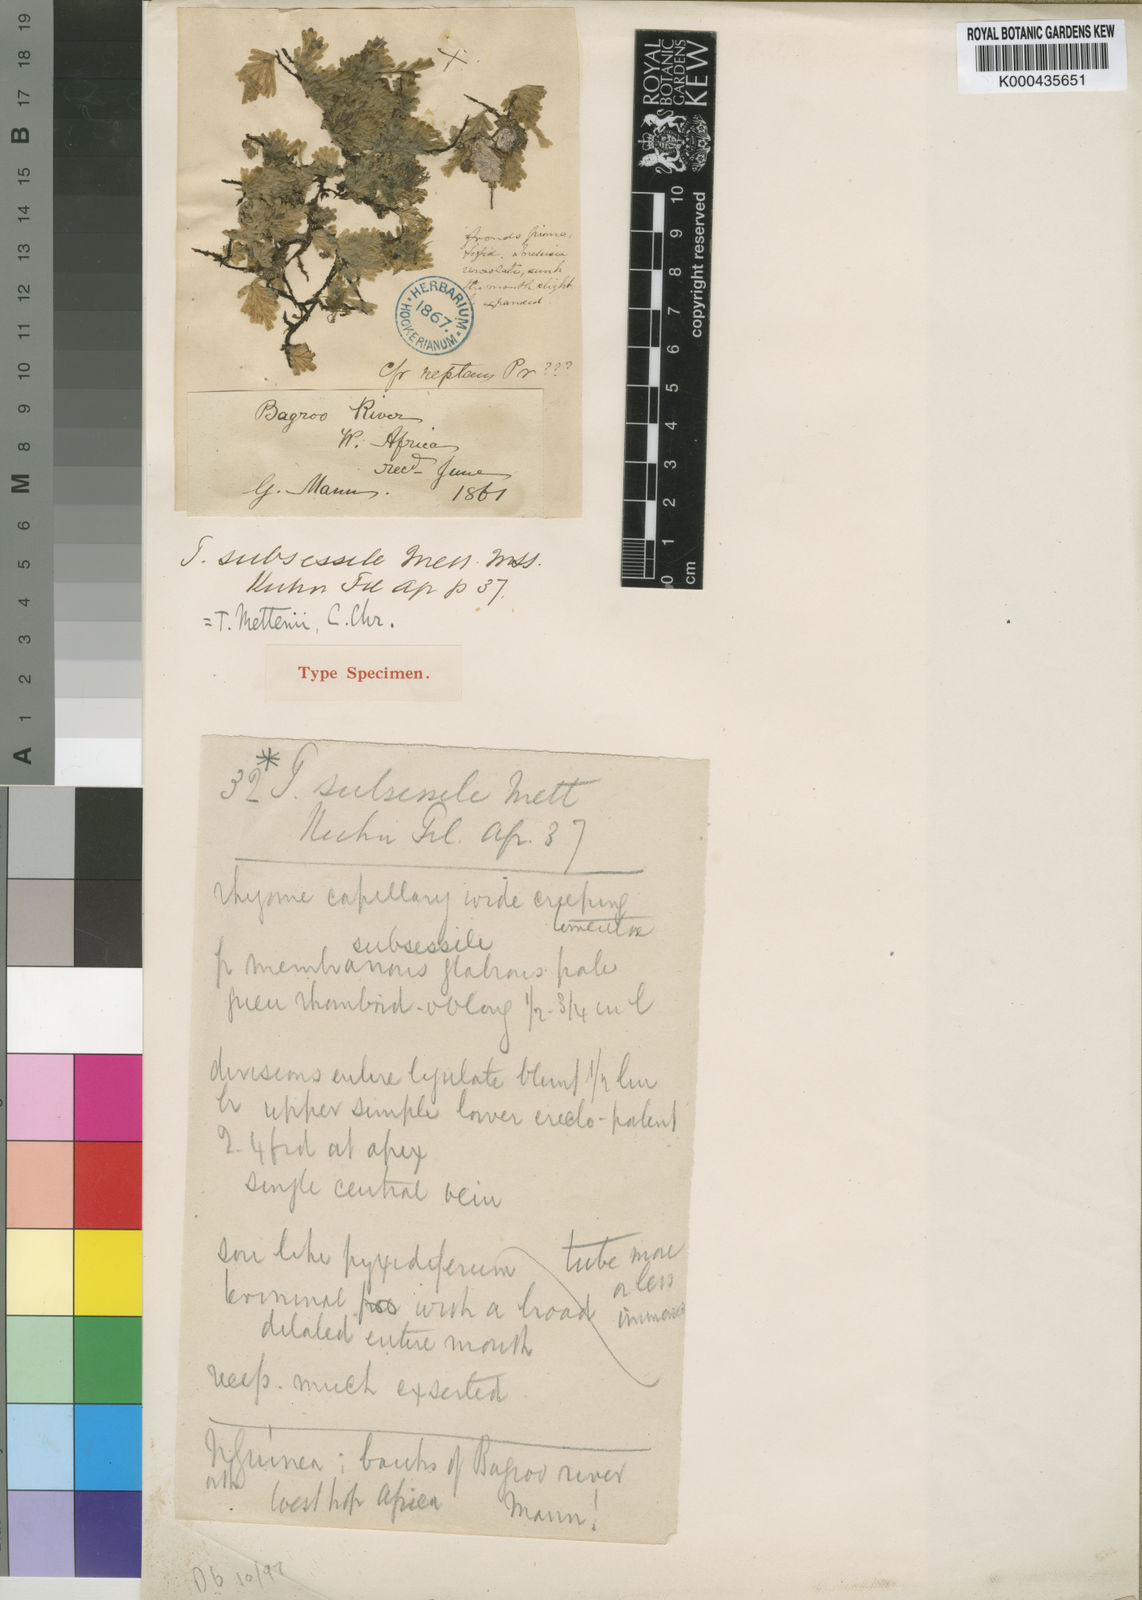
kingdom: Plantae
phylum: Tracheophyta
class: Polypodiopsida
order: Hymenophyllales
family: Hymenophyllaceae
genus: Crepidomanes
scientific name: Crepidomanes mettenii
